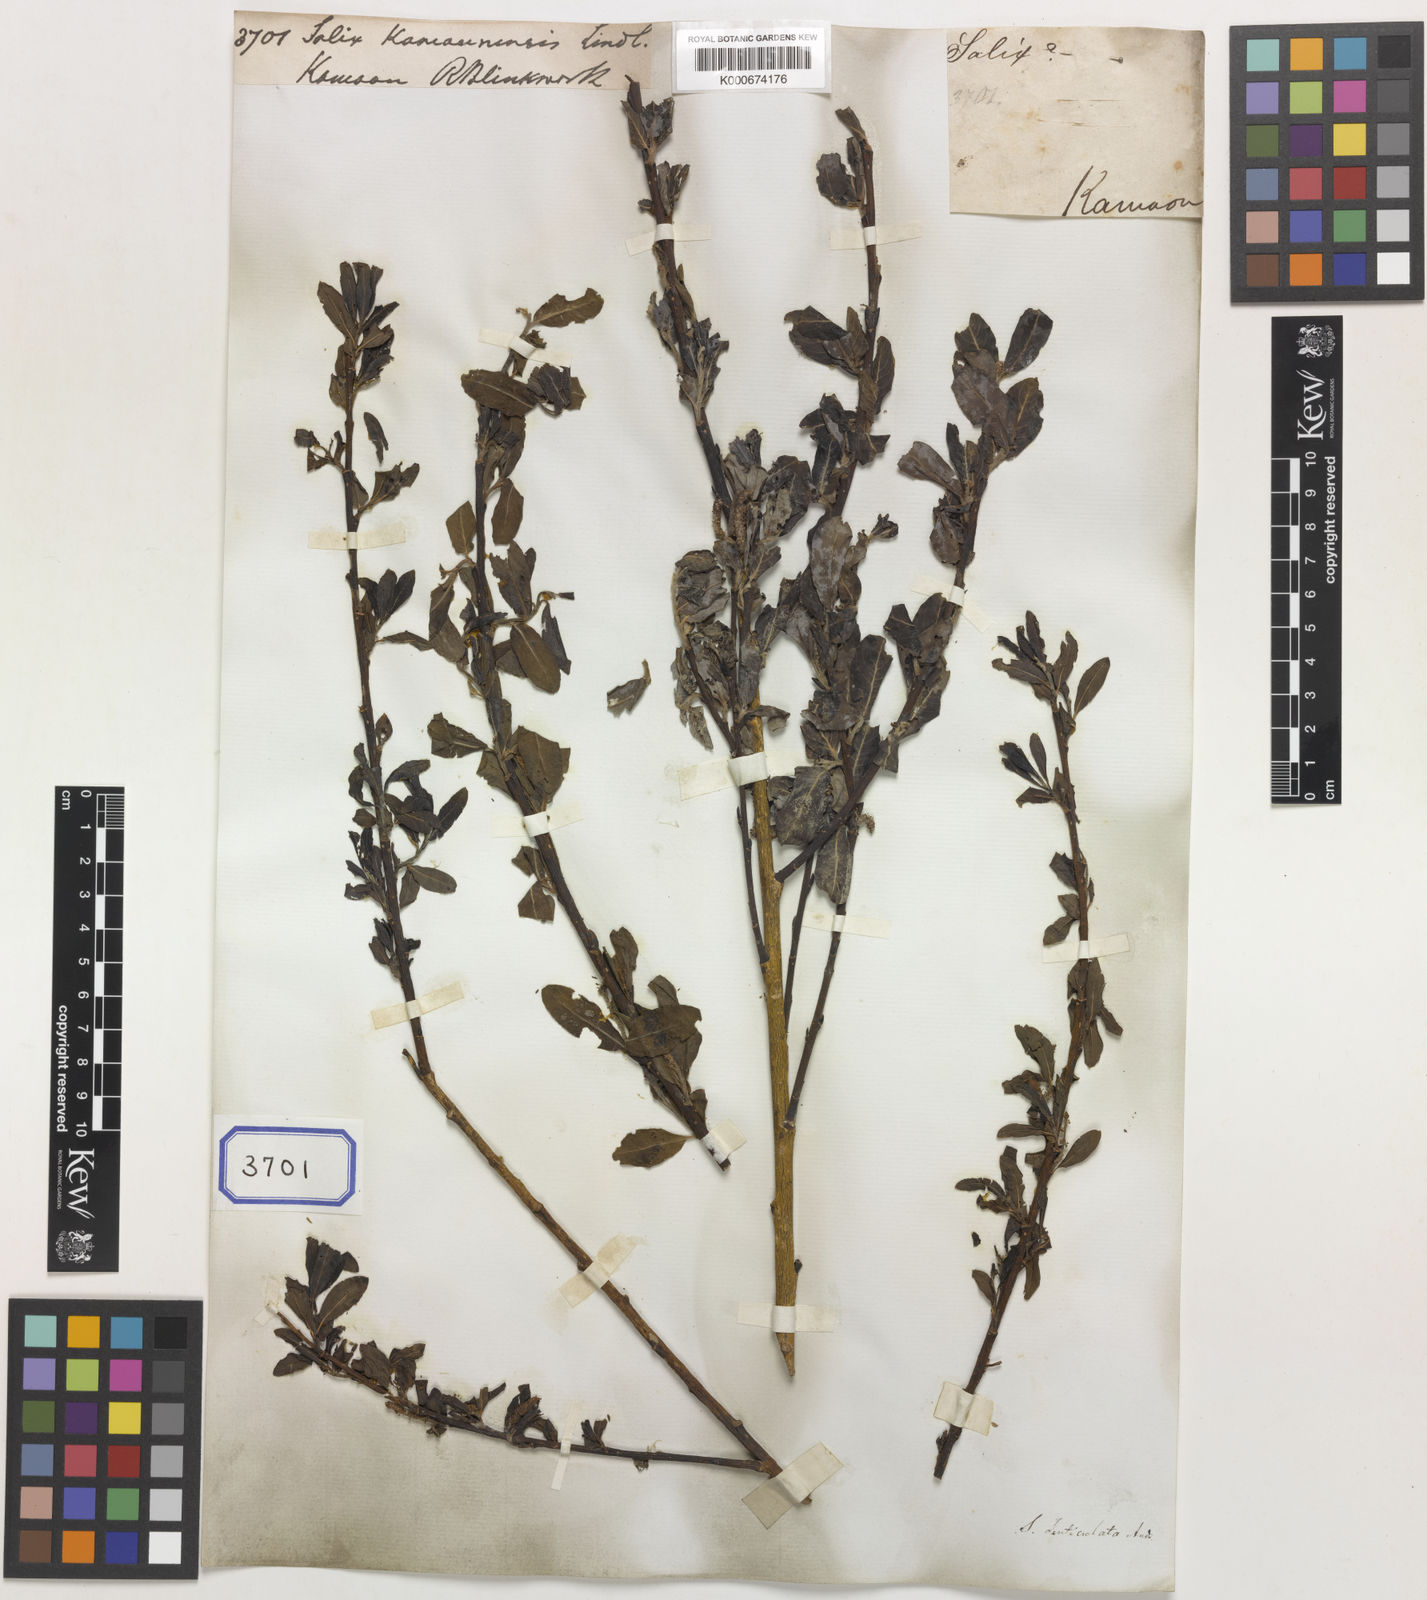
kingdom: Plantae
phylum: Tracheophyta
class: Magnoliopsida
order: Malpighiales
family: Salicaceae
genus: Salix
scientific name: Salix denticulata
